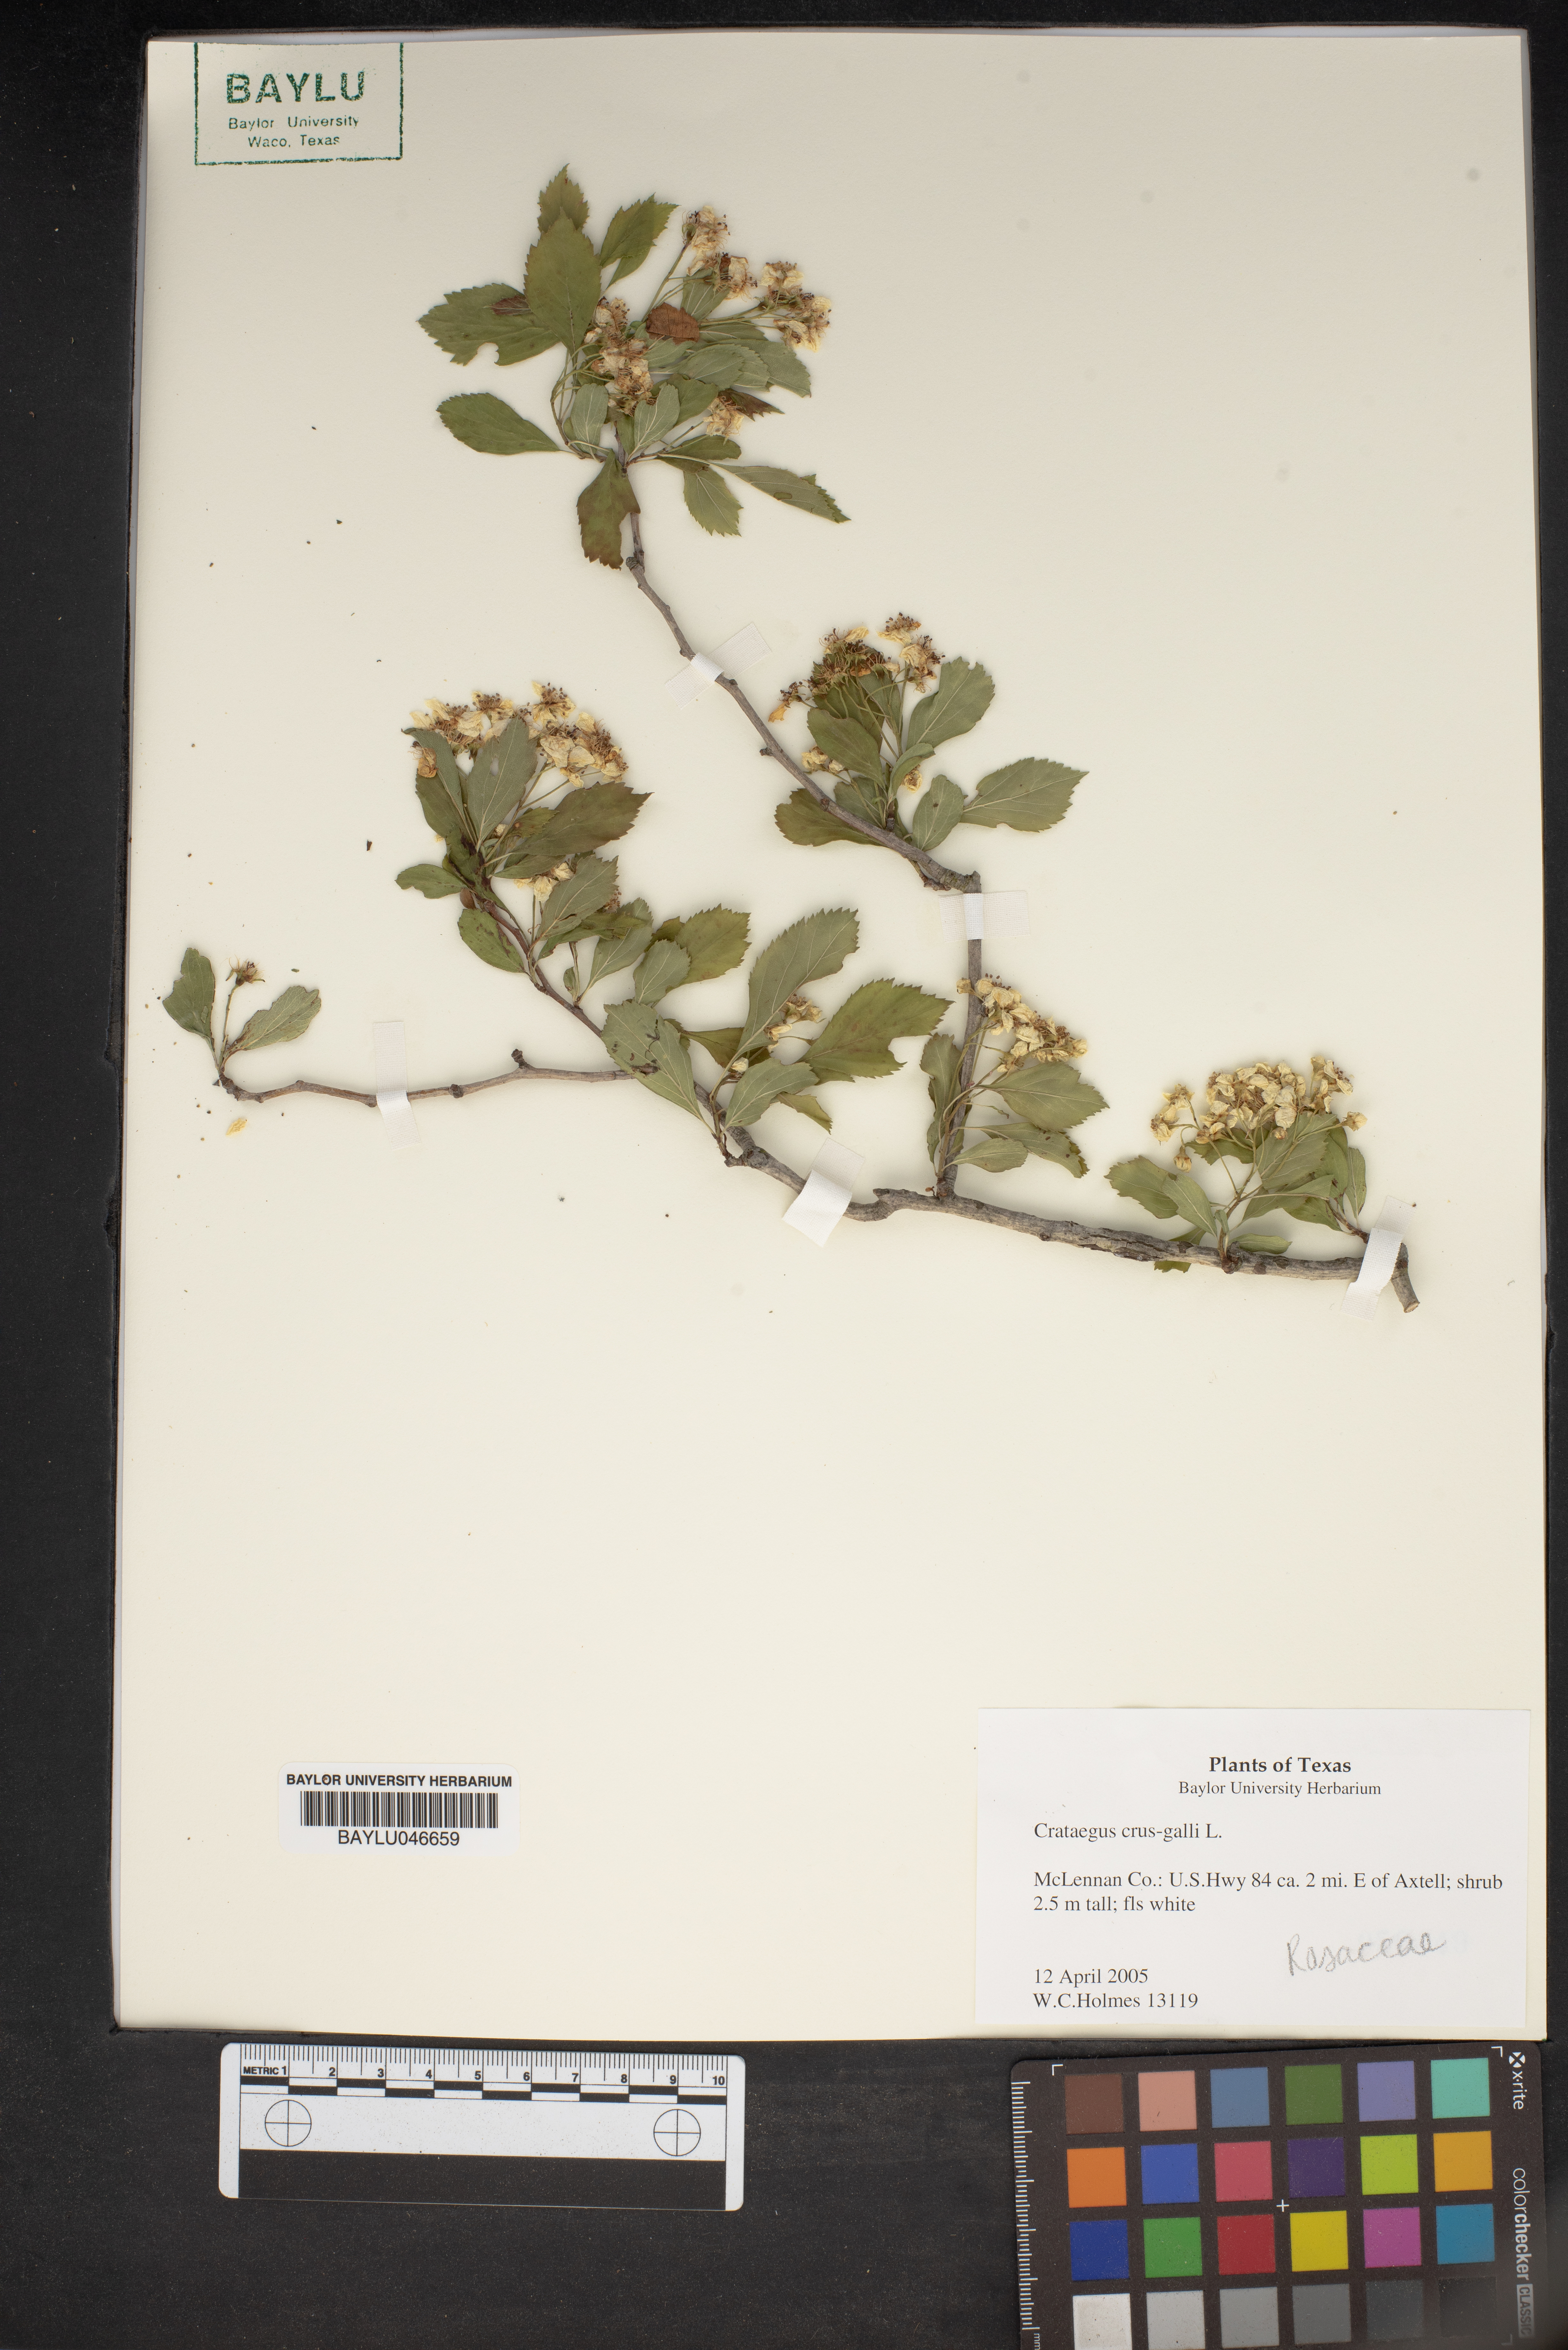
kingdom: Plantae
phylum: Tracheophyta
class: Magnoliopsida
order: Rosales
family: Rosaceae
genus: Crataegus
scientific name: Crataegus crus-galli
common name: Cockspurthorn
